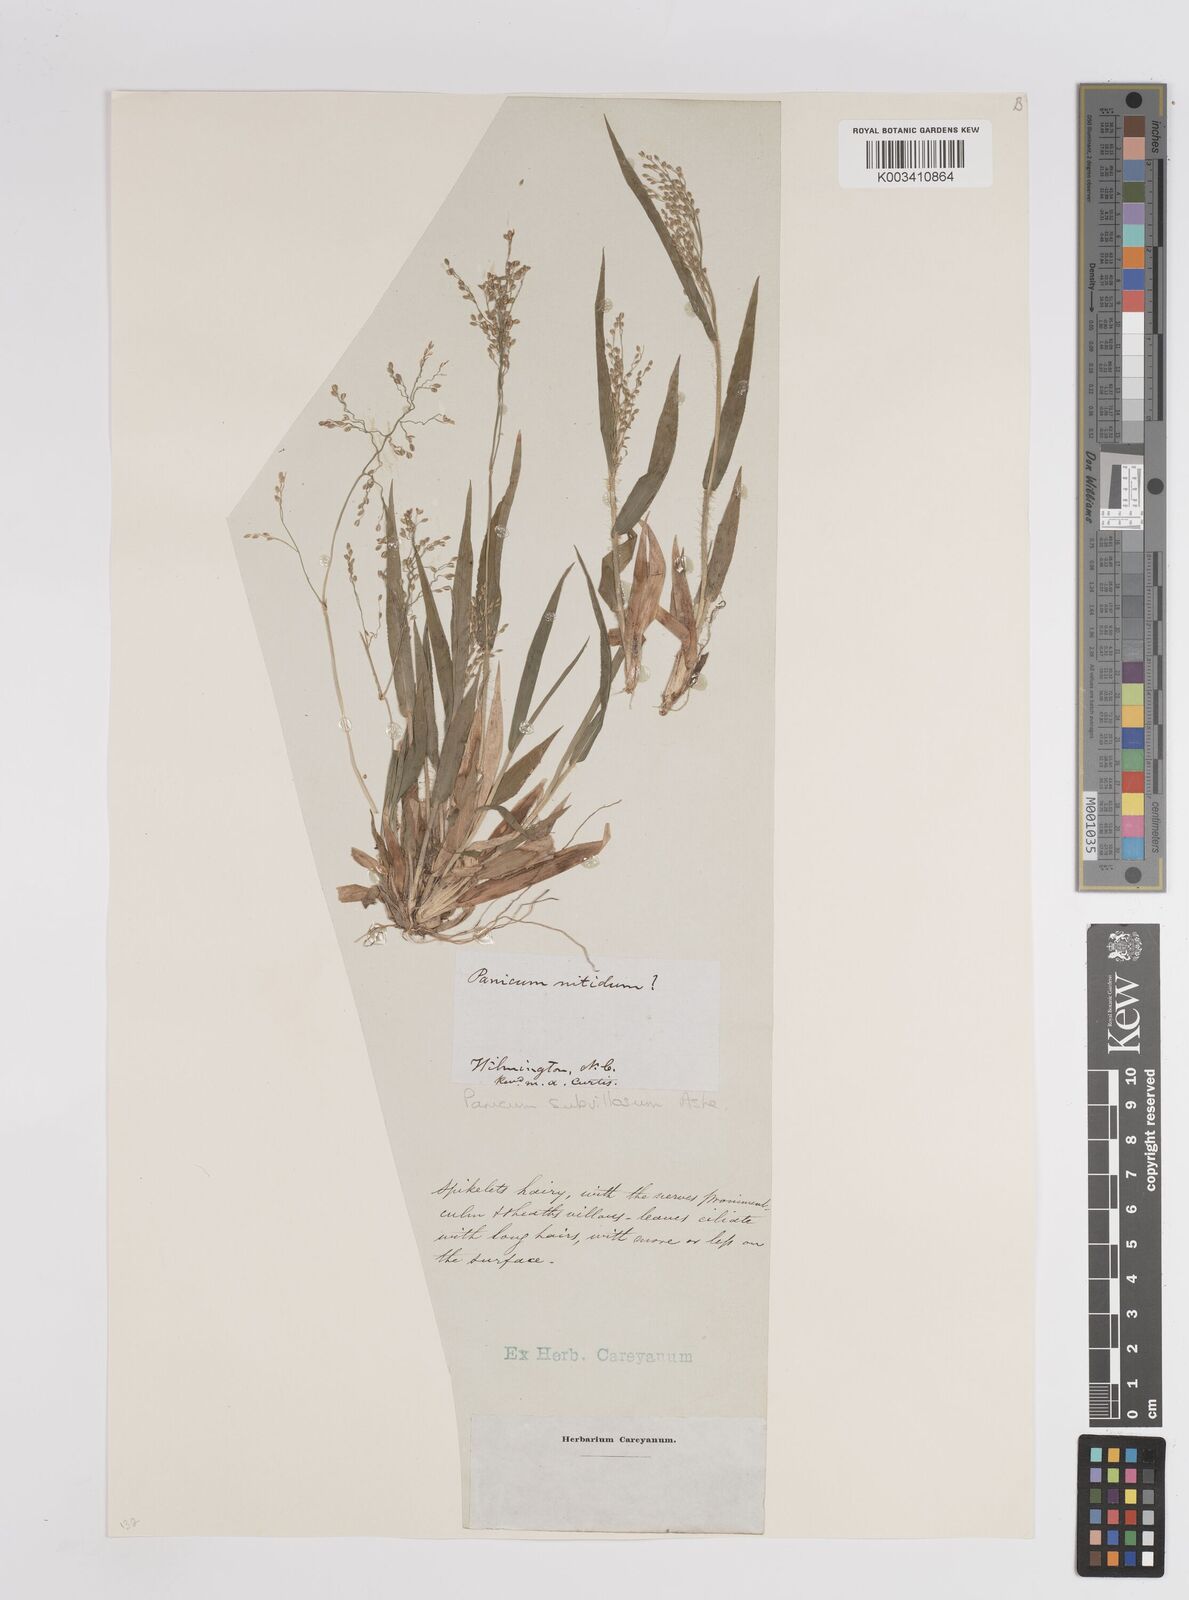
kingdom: Plantae
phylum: Tracheophyta
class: Liliopsida
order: Poales
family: Poaceae
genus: Dichanthelium
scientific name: Dichanthelium subvillosum
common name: Soft-haired panicgrass
